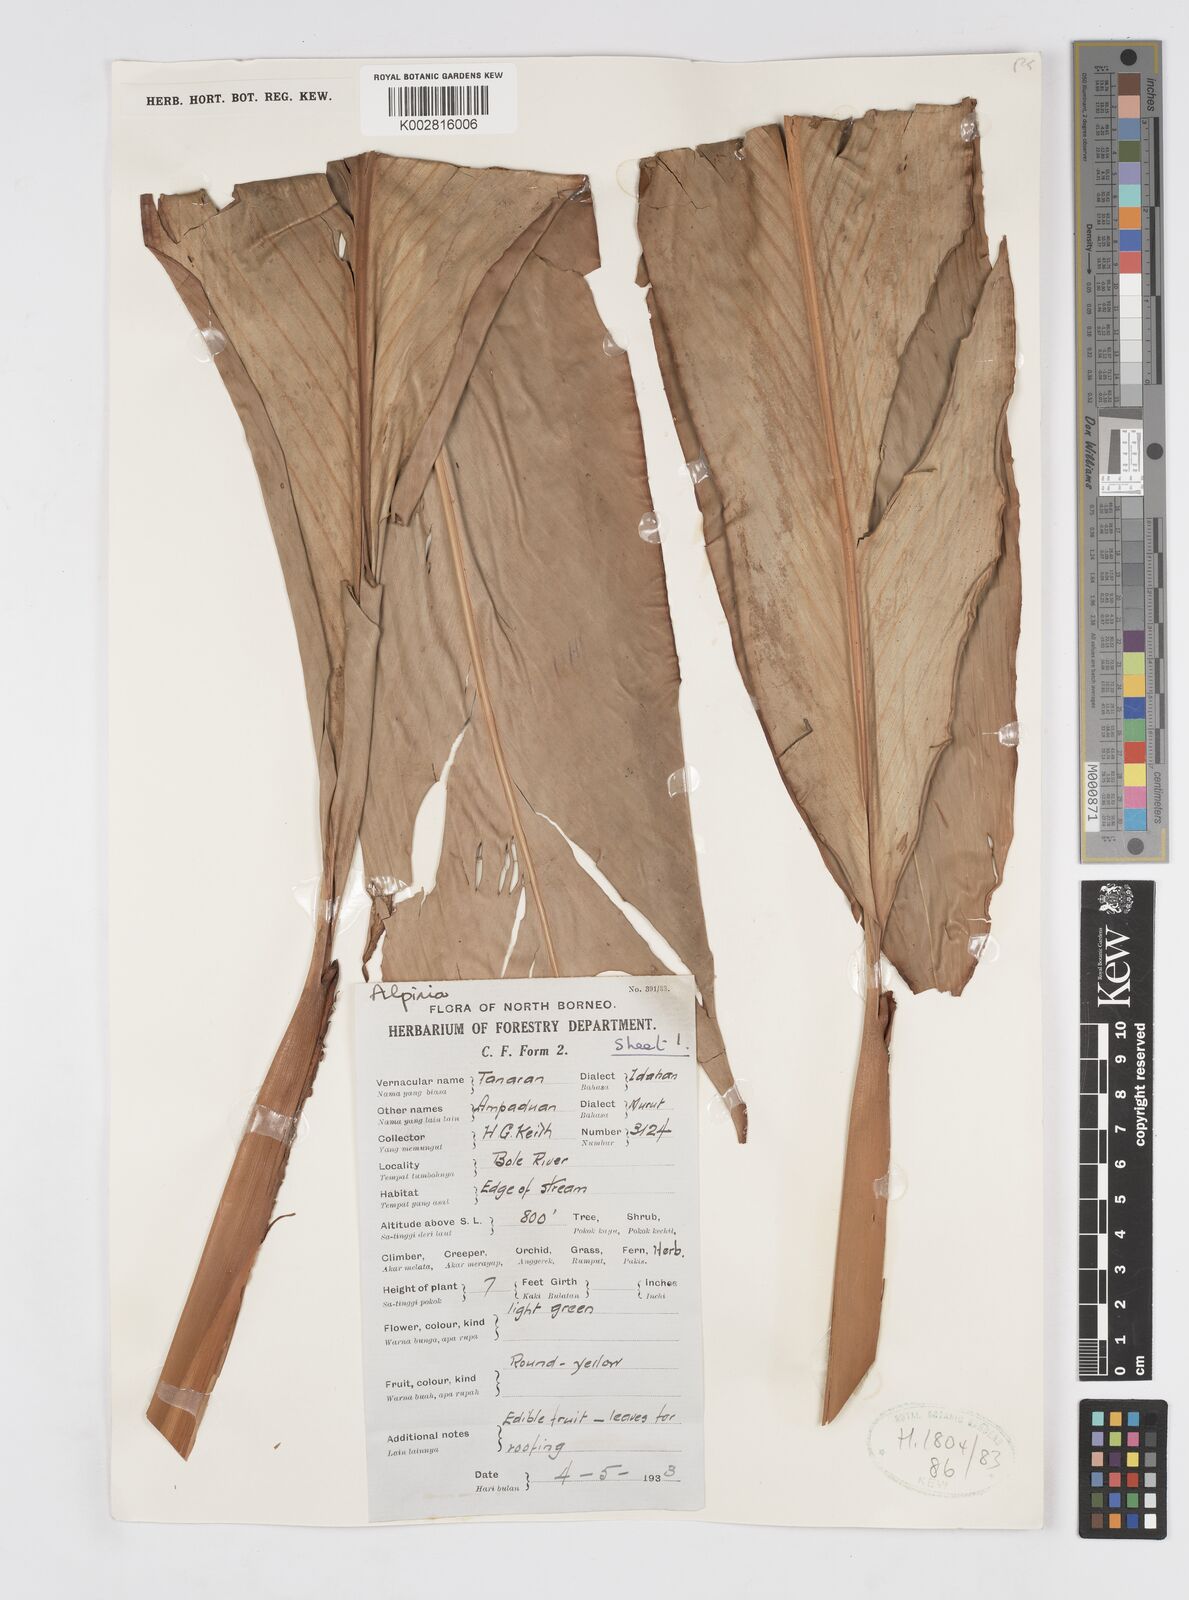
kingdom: Plantae
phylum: Tracheophyta
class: Liliopsida
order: Zingiberales
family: Zingiberaceae
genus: Alpinia
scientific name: Alpinia nieuwenhuizii
